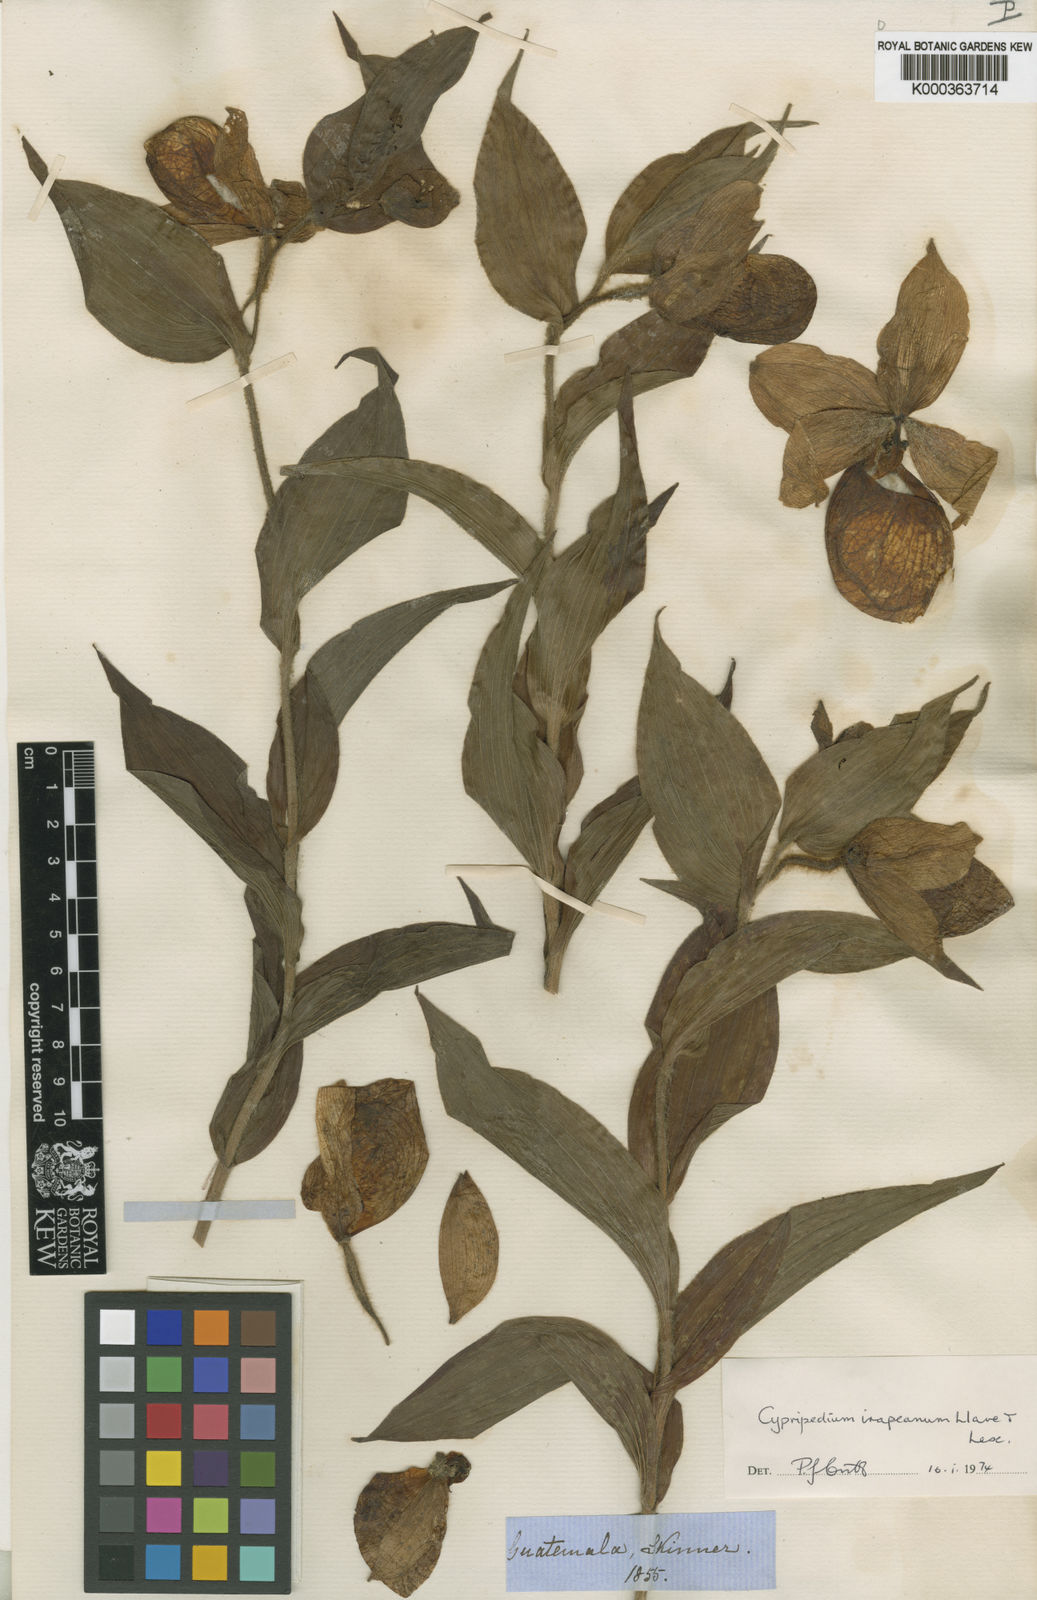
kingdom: Plantae
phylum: Tracheophyta
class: Liliopsida
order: Asparagales
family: Orchidaceae
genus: Cypripedium
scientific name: Cypripedium irapeanum
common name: Irapeao cypripedium
